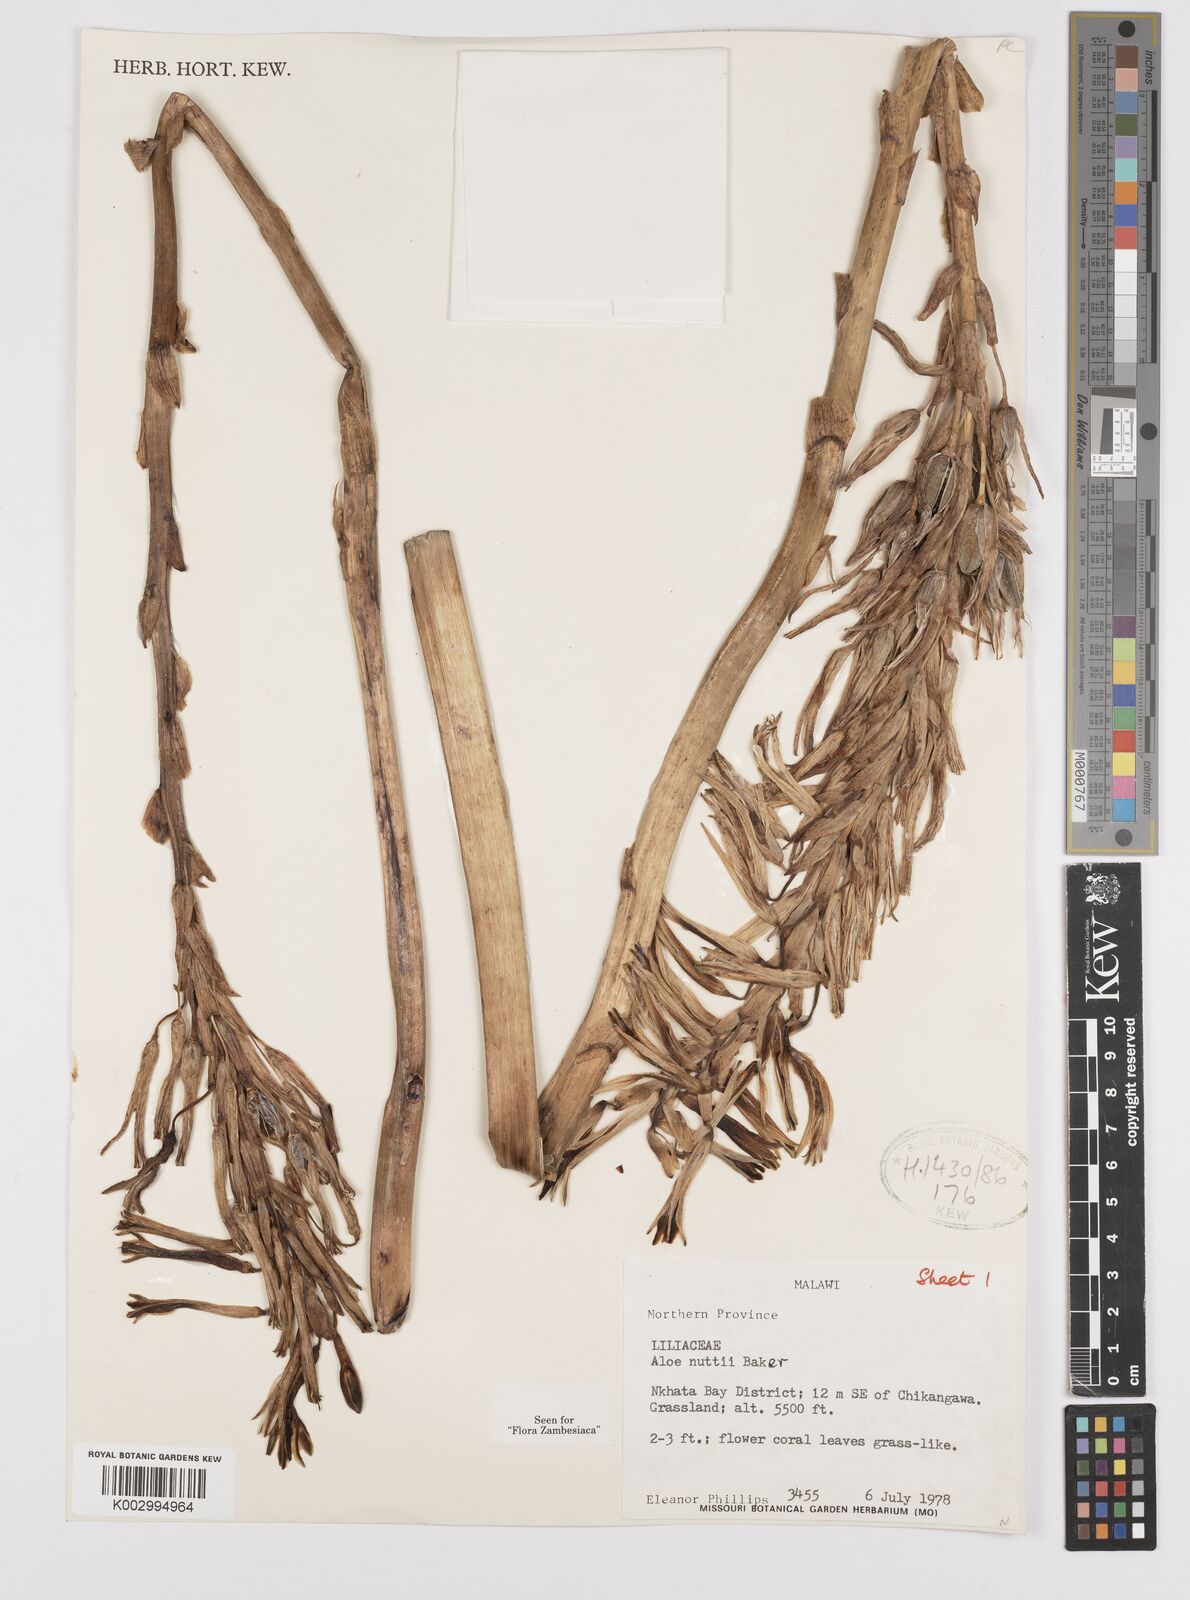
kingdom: Plantae
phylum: Tracheophyta
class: Liliopsida
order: Asparagales
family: Asphodelaceae
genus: Aloe
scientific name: Aloe nuttii
